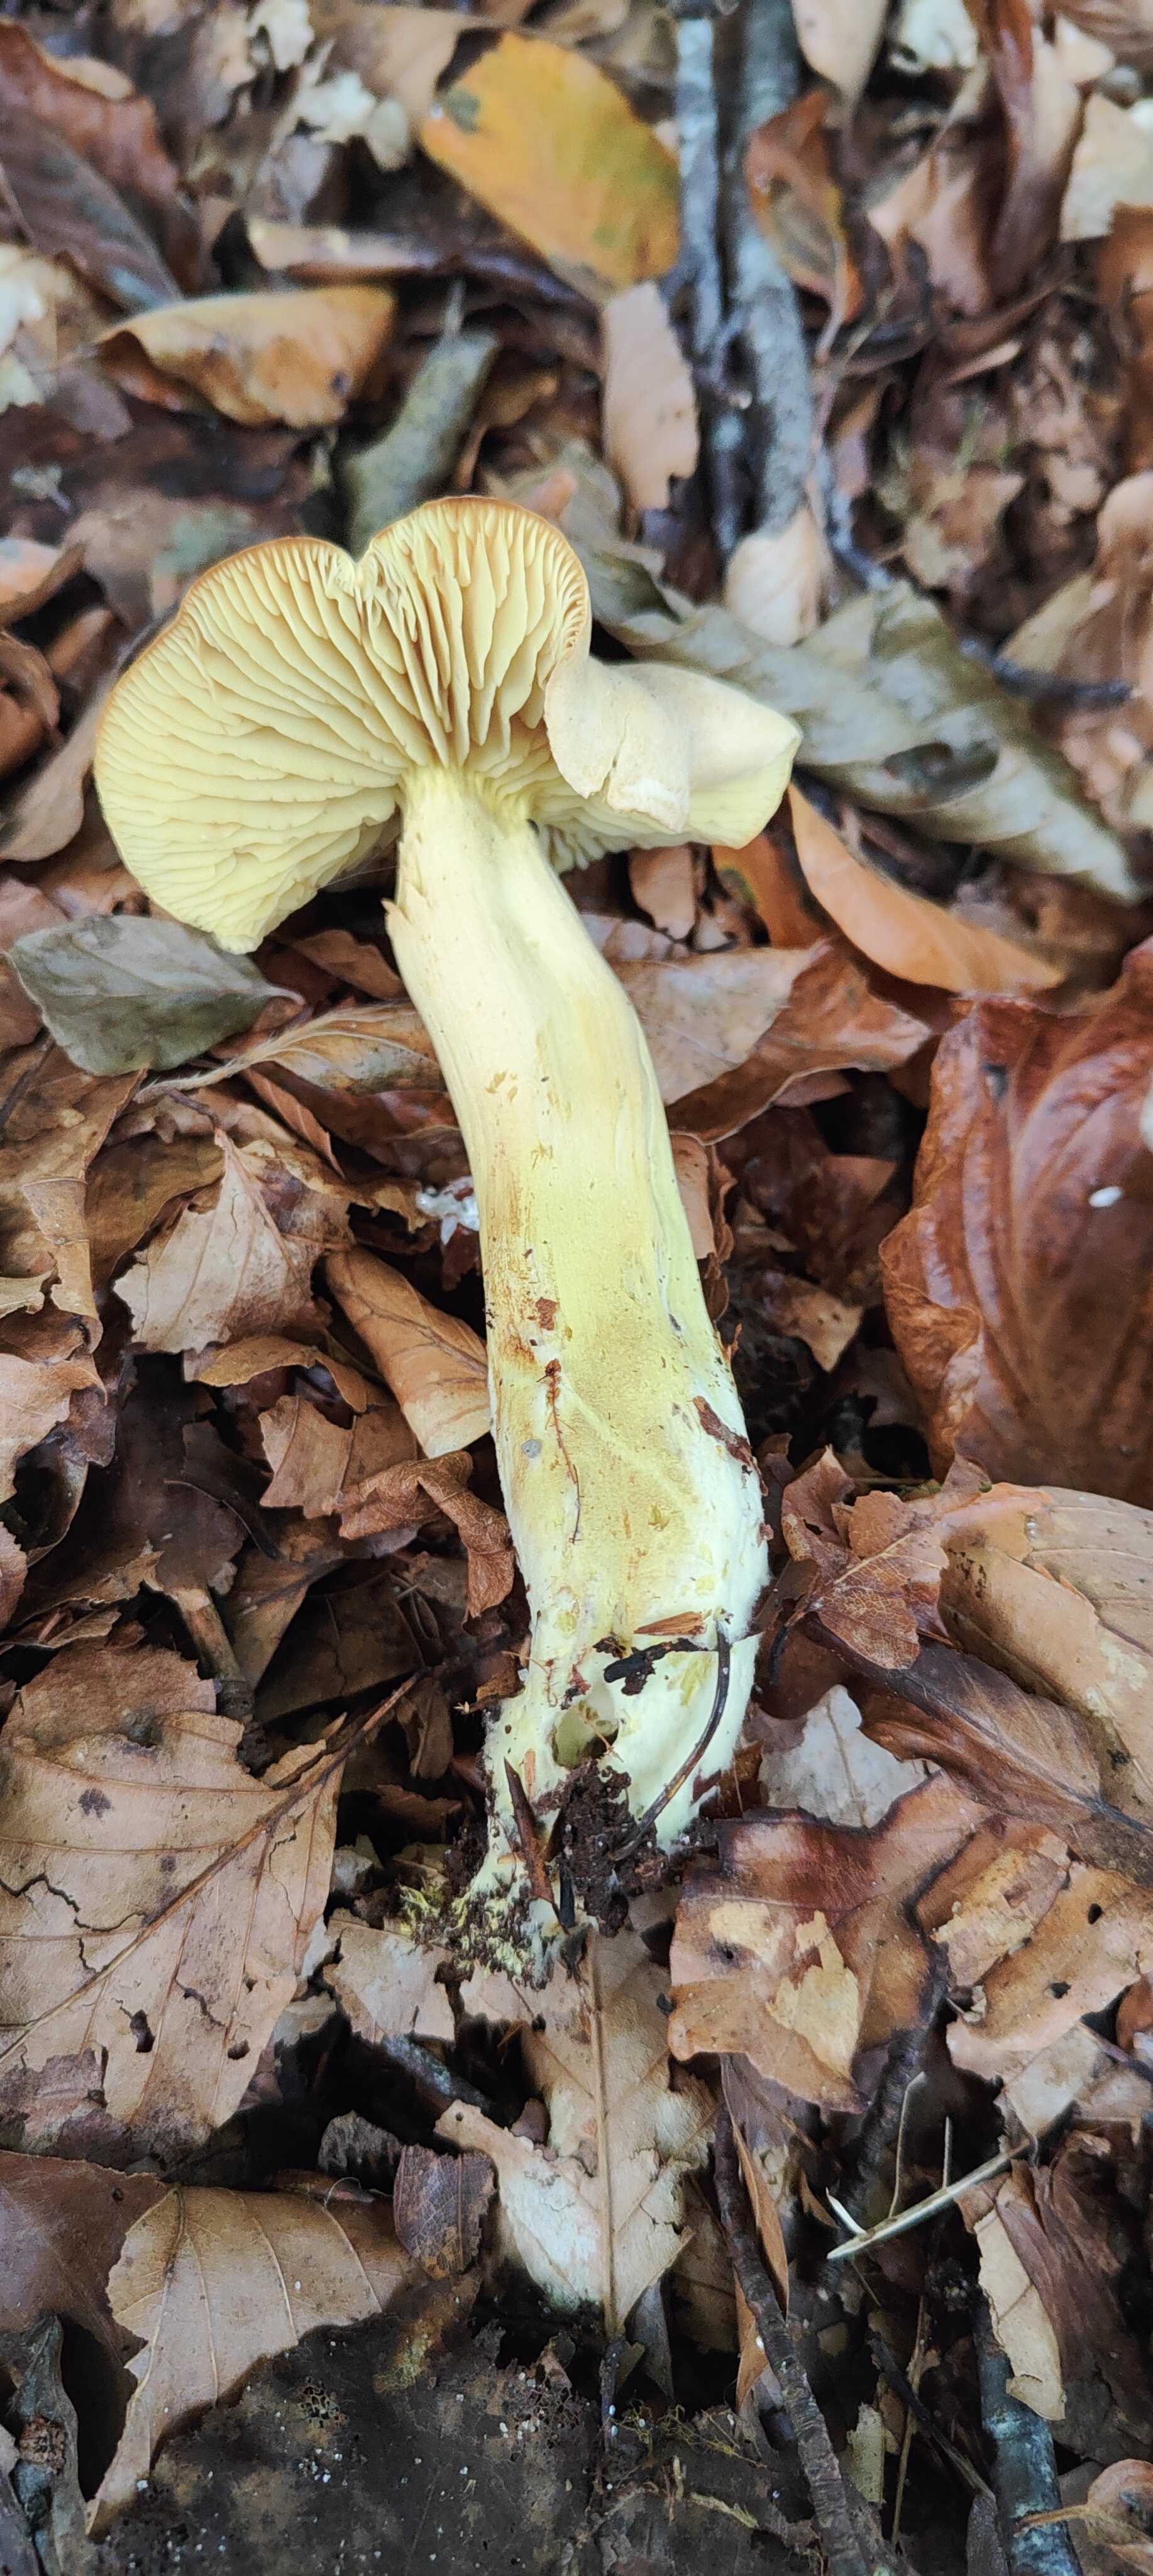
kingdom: Fungi
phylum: Basidiomycota
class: Agaricomycetes
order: Agaricales
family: Tricholomataceae
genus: Tricholoma
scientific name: Tricholoma sulphureum
